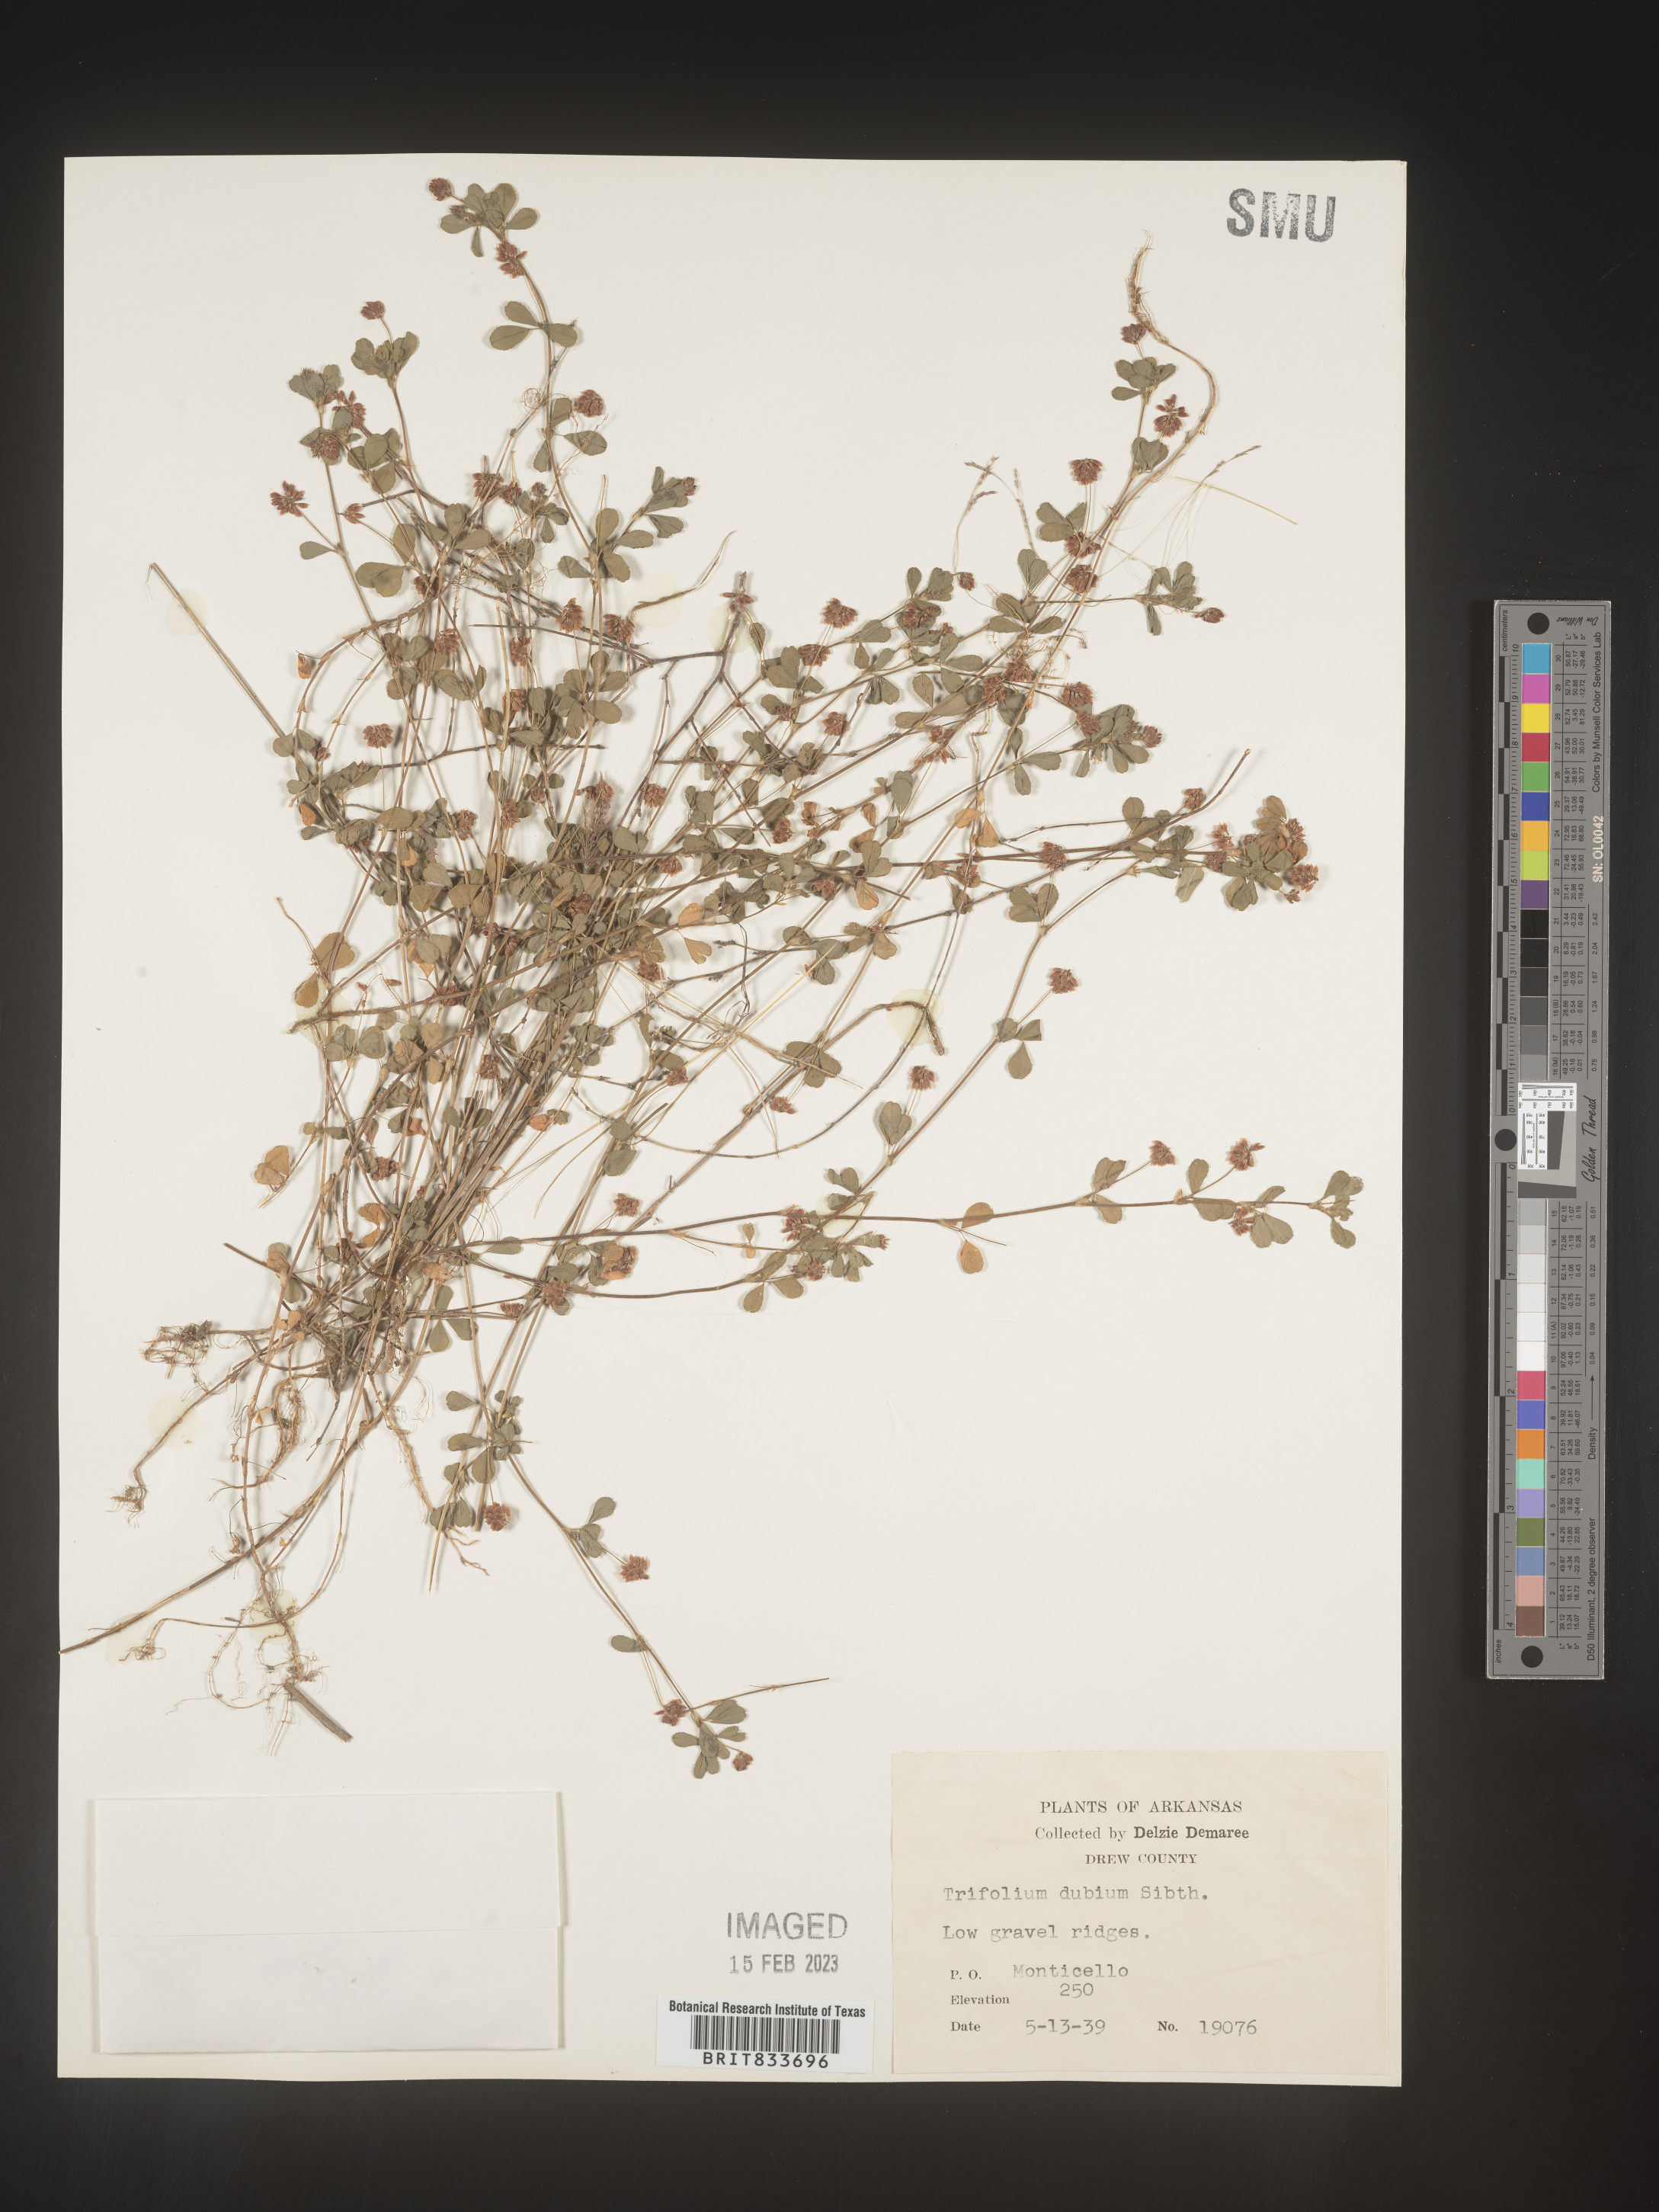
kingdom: Plantae
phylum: Tracheophyta
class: Magnoliopsida
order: Fabales
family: Fabaceae
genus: Trifolium
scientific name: Trifolium dubium
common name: Suckling clover
